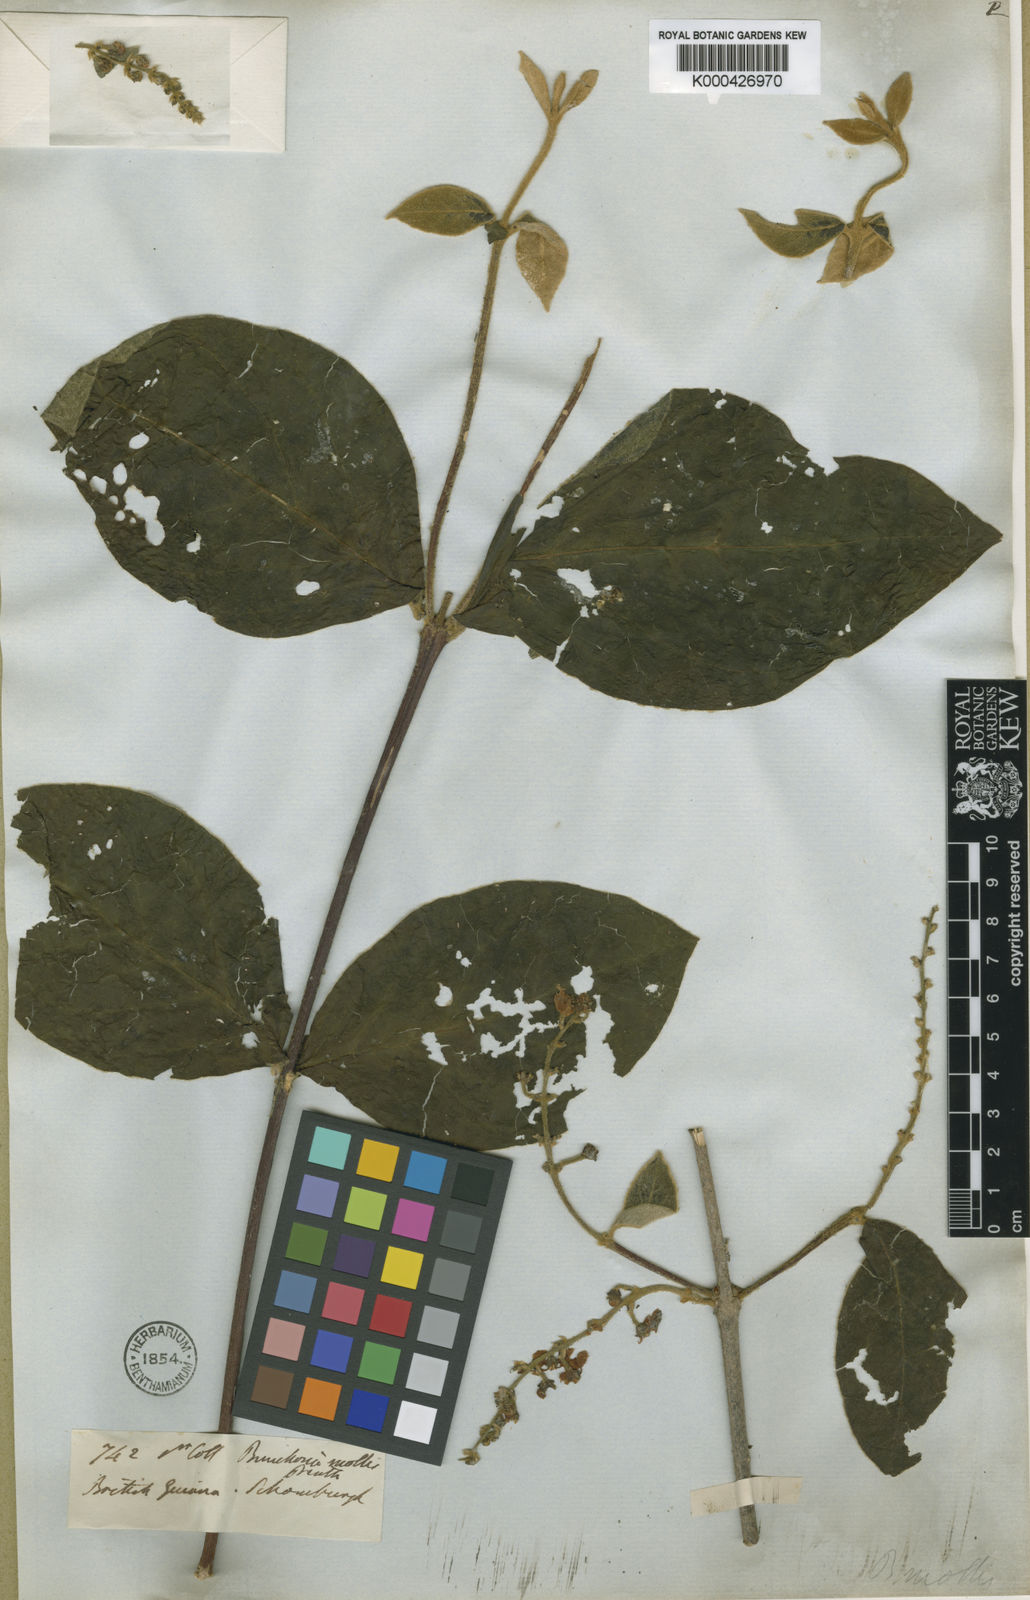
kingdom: Plantae
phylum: Tracheophyta
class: Magnoliopsida
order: Malpighiales
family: Malpighiaceae
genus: Bunchosia
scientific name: Bunchosia mollis
